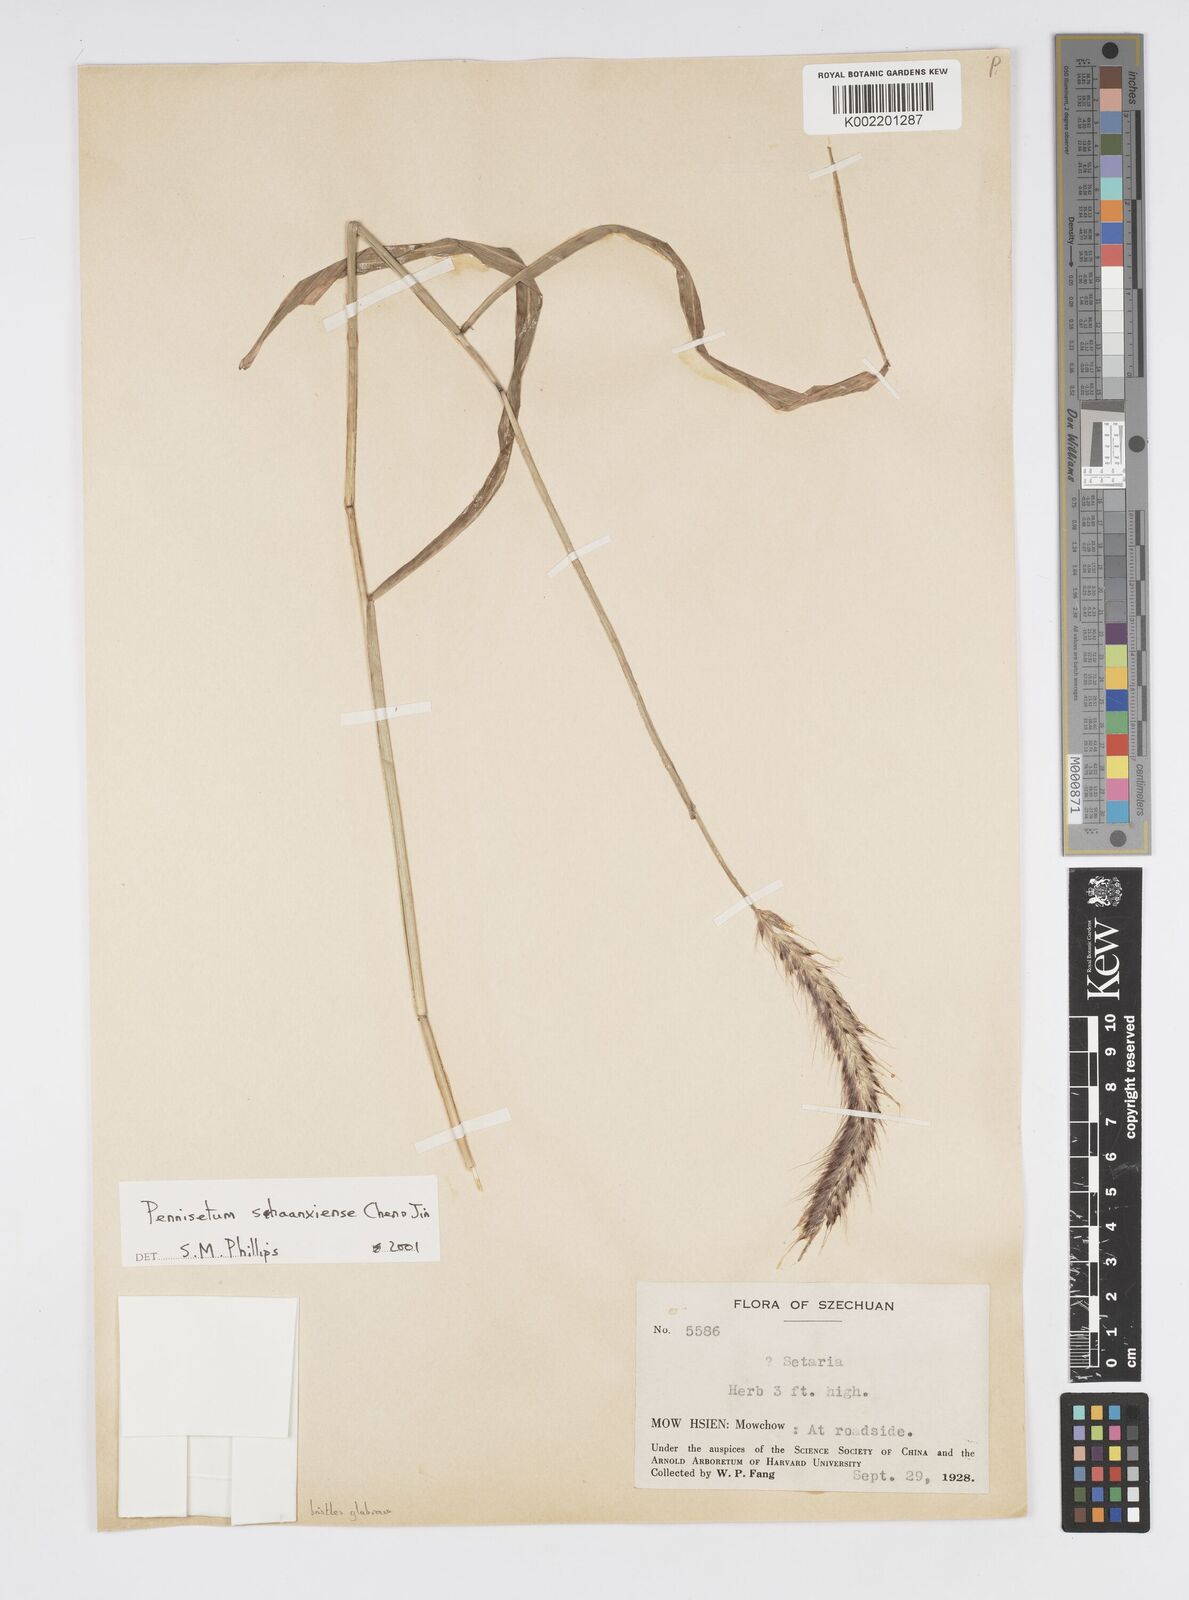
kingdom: Plantae
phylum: Tracheophyta
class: Liliopsida
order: Poales
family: Poaceae
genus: Cenchrus
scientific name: Cenchrus shaanxiensis
